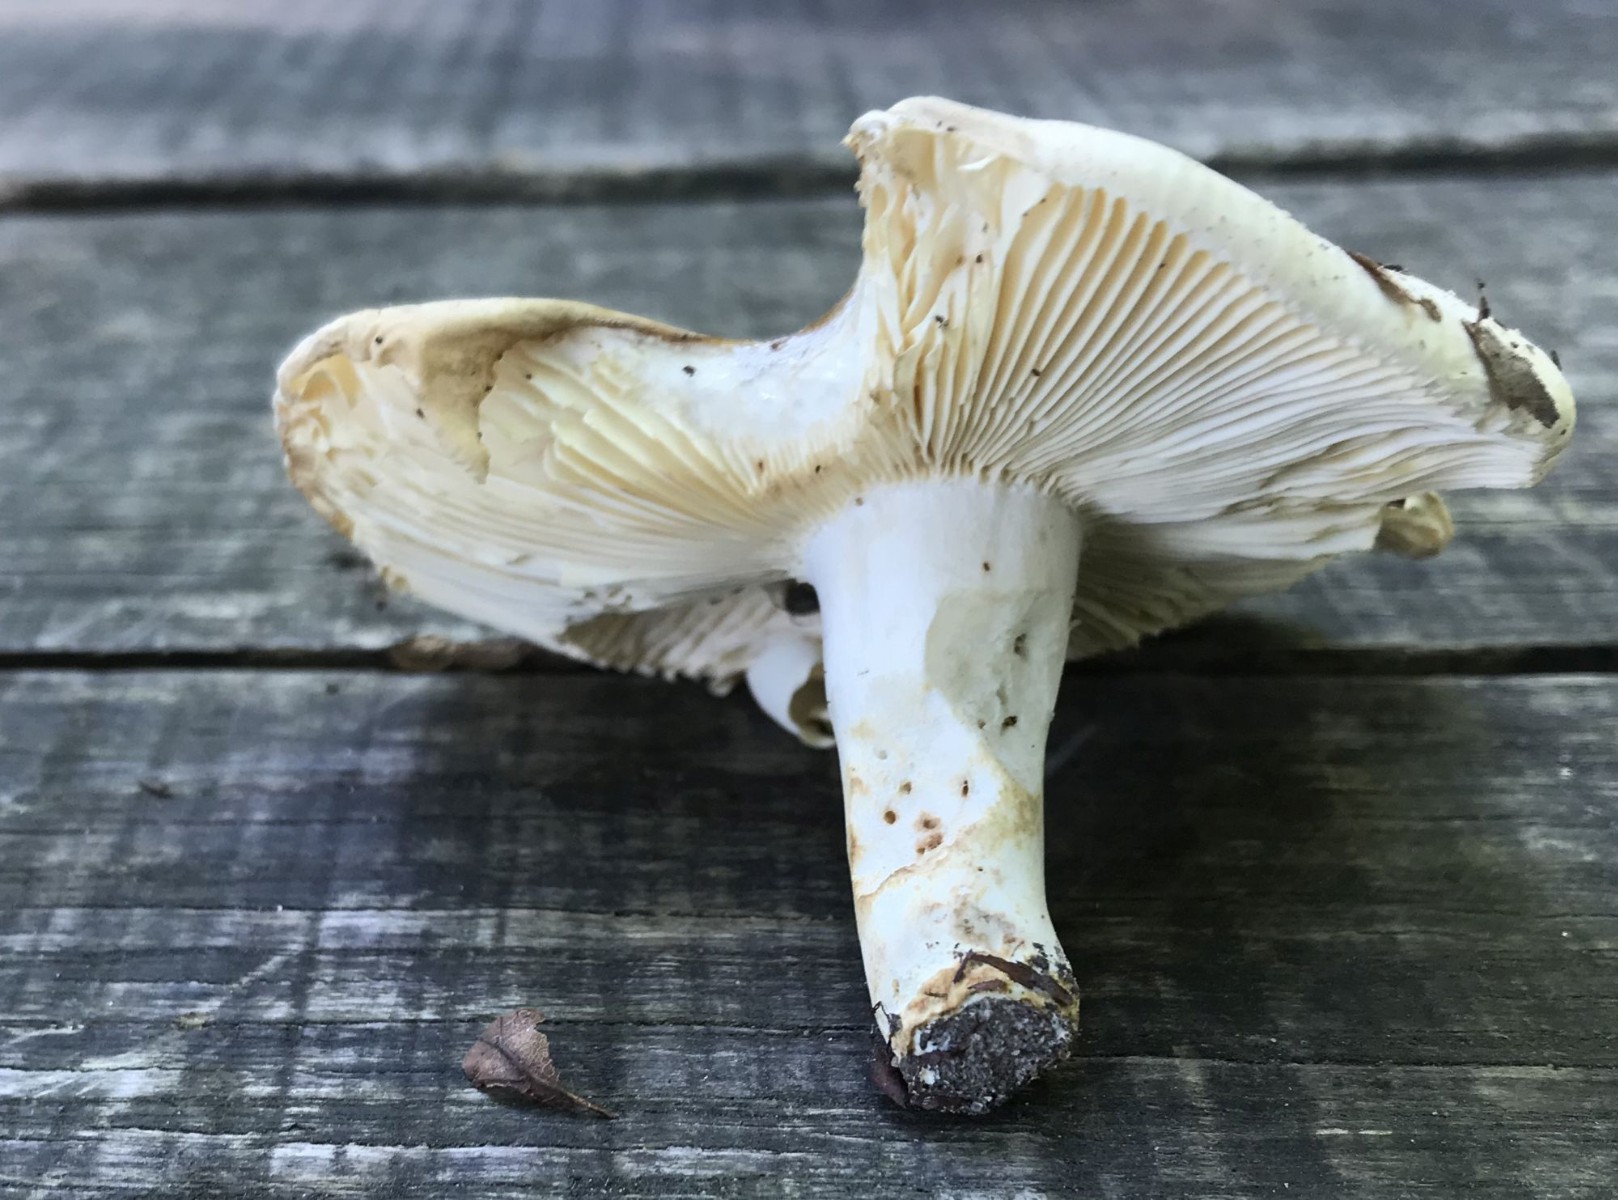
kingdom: Fungi
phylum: Basidiomycota
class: Agaricomycetes
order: Russulales
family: Russulaceae
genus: Russula
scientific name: Russula
